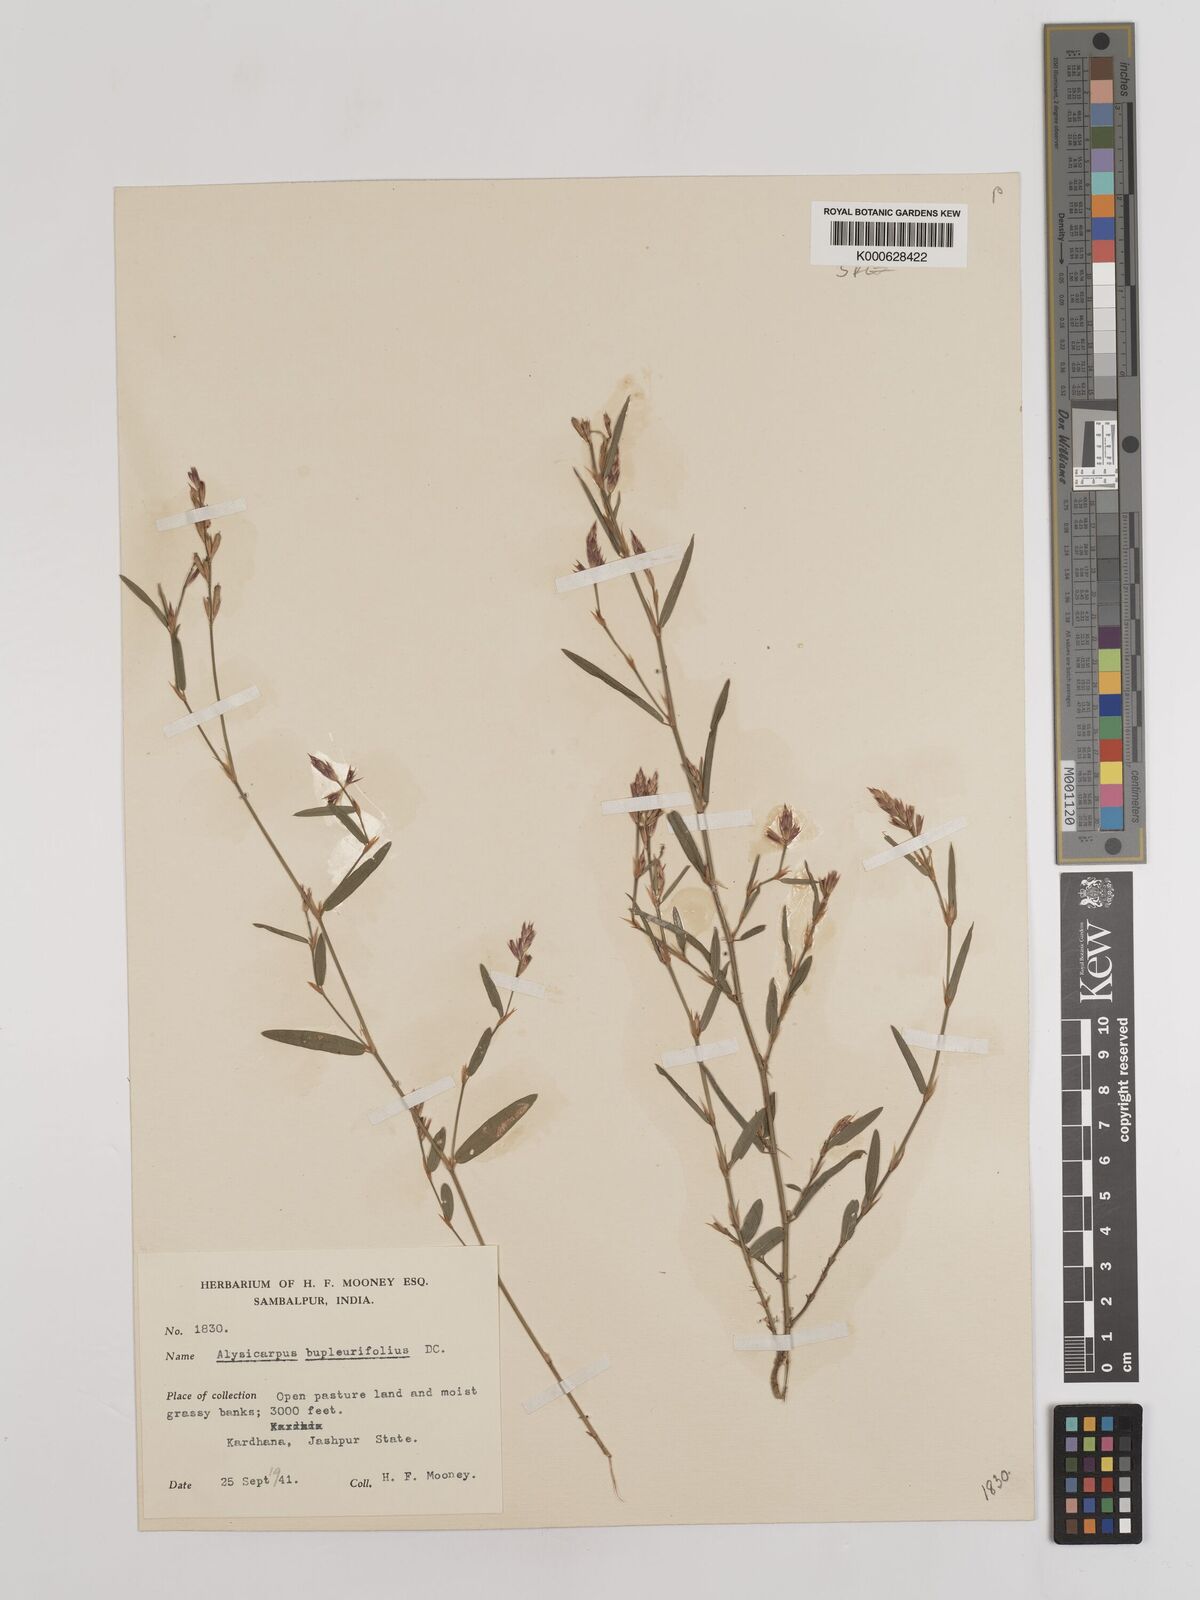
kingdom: Plantae
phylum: Tracheophyta
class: Magnoliopsida
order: Fabales
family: Fabaceae
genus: Alysicarpus
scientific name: Alysicarpus bupleurifolius
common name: Sweet alys
